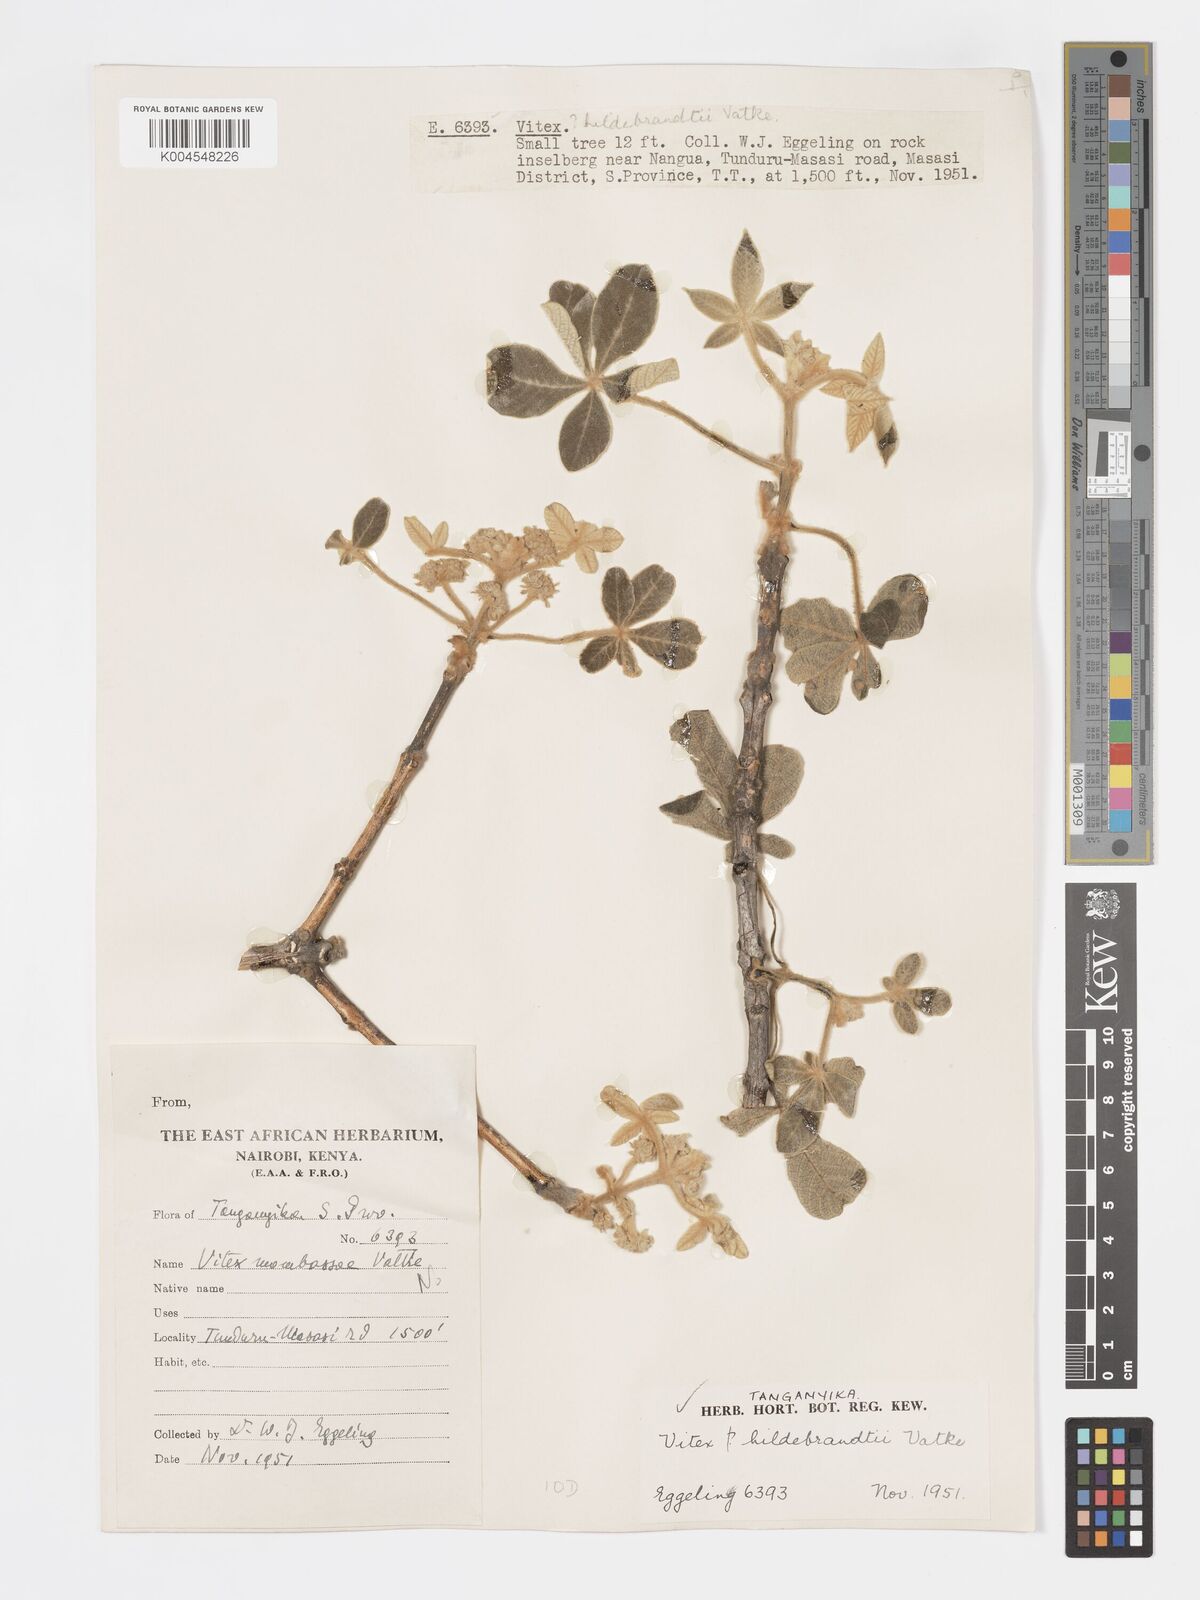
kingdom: Plantae
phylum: Tracheophyta
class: Magnoliopsida
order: Lamiales
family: Lamiaceae
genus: Vitex
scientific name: Vitex payos
